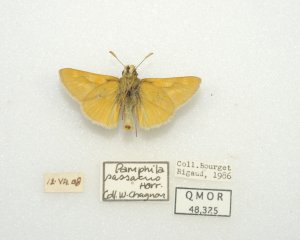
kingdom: Animalia
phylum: Arthropoda
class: Insecta
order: Lepidoptera
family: Hesperiidae
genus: Polites
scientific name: Polites
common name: Long Dash Skipper
